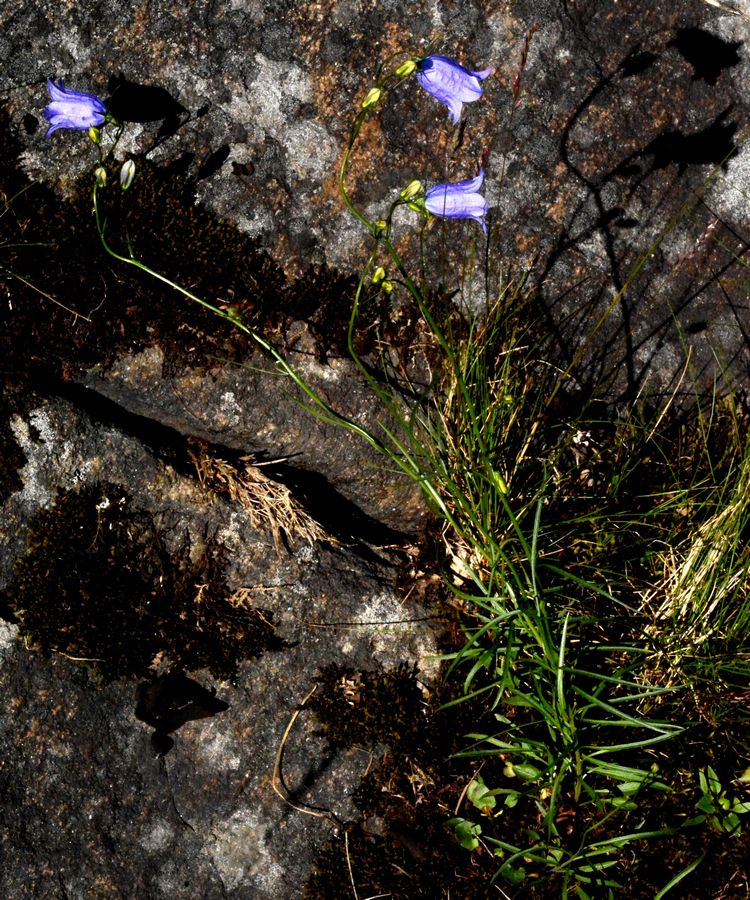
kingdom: Plantae
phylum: Tracheophyta
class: Magnoliopsida
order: Asterales
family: Campanulaceae
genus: Campanula
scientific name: Campanula rotundifolia
